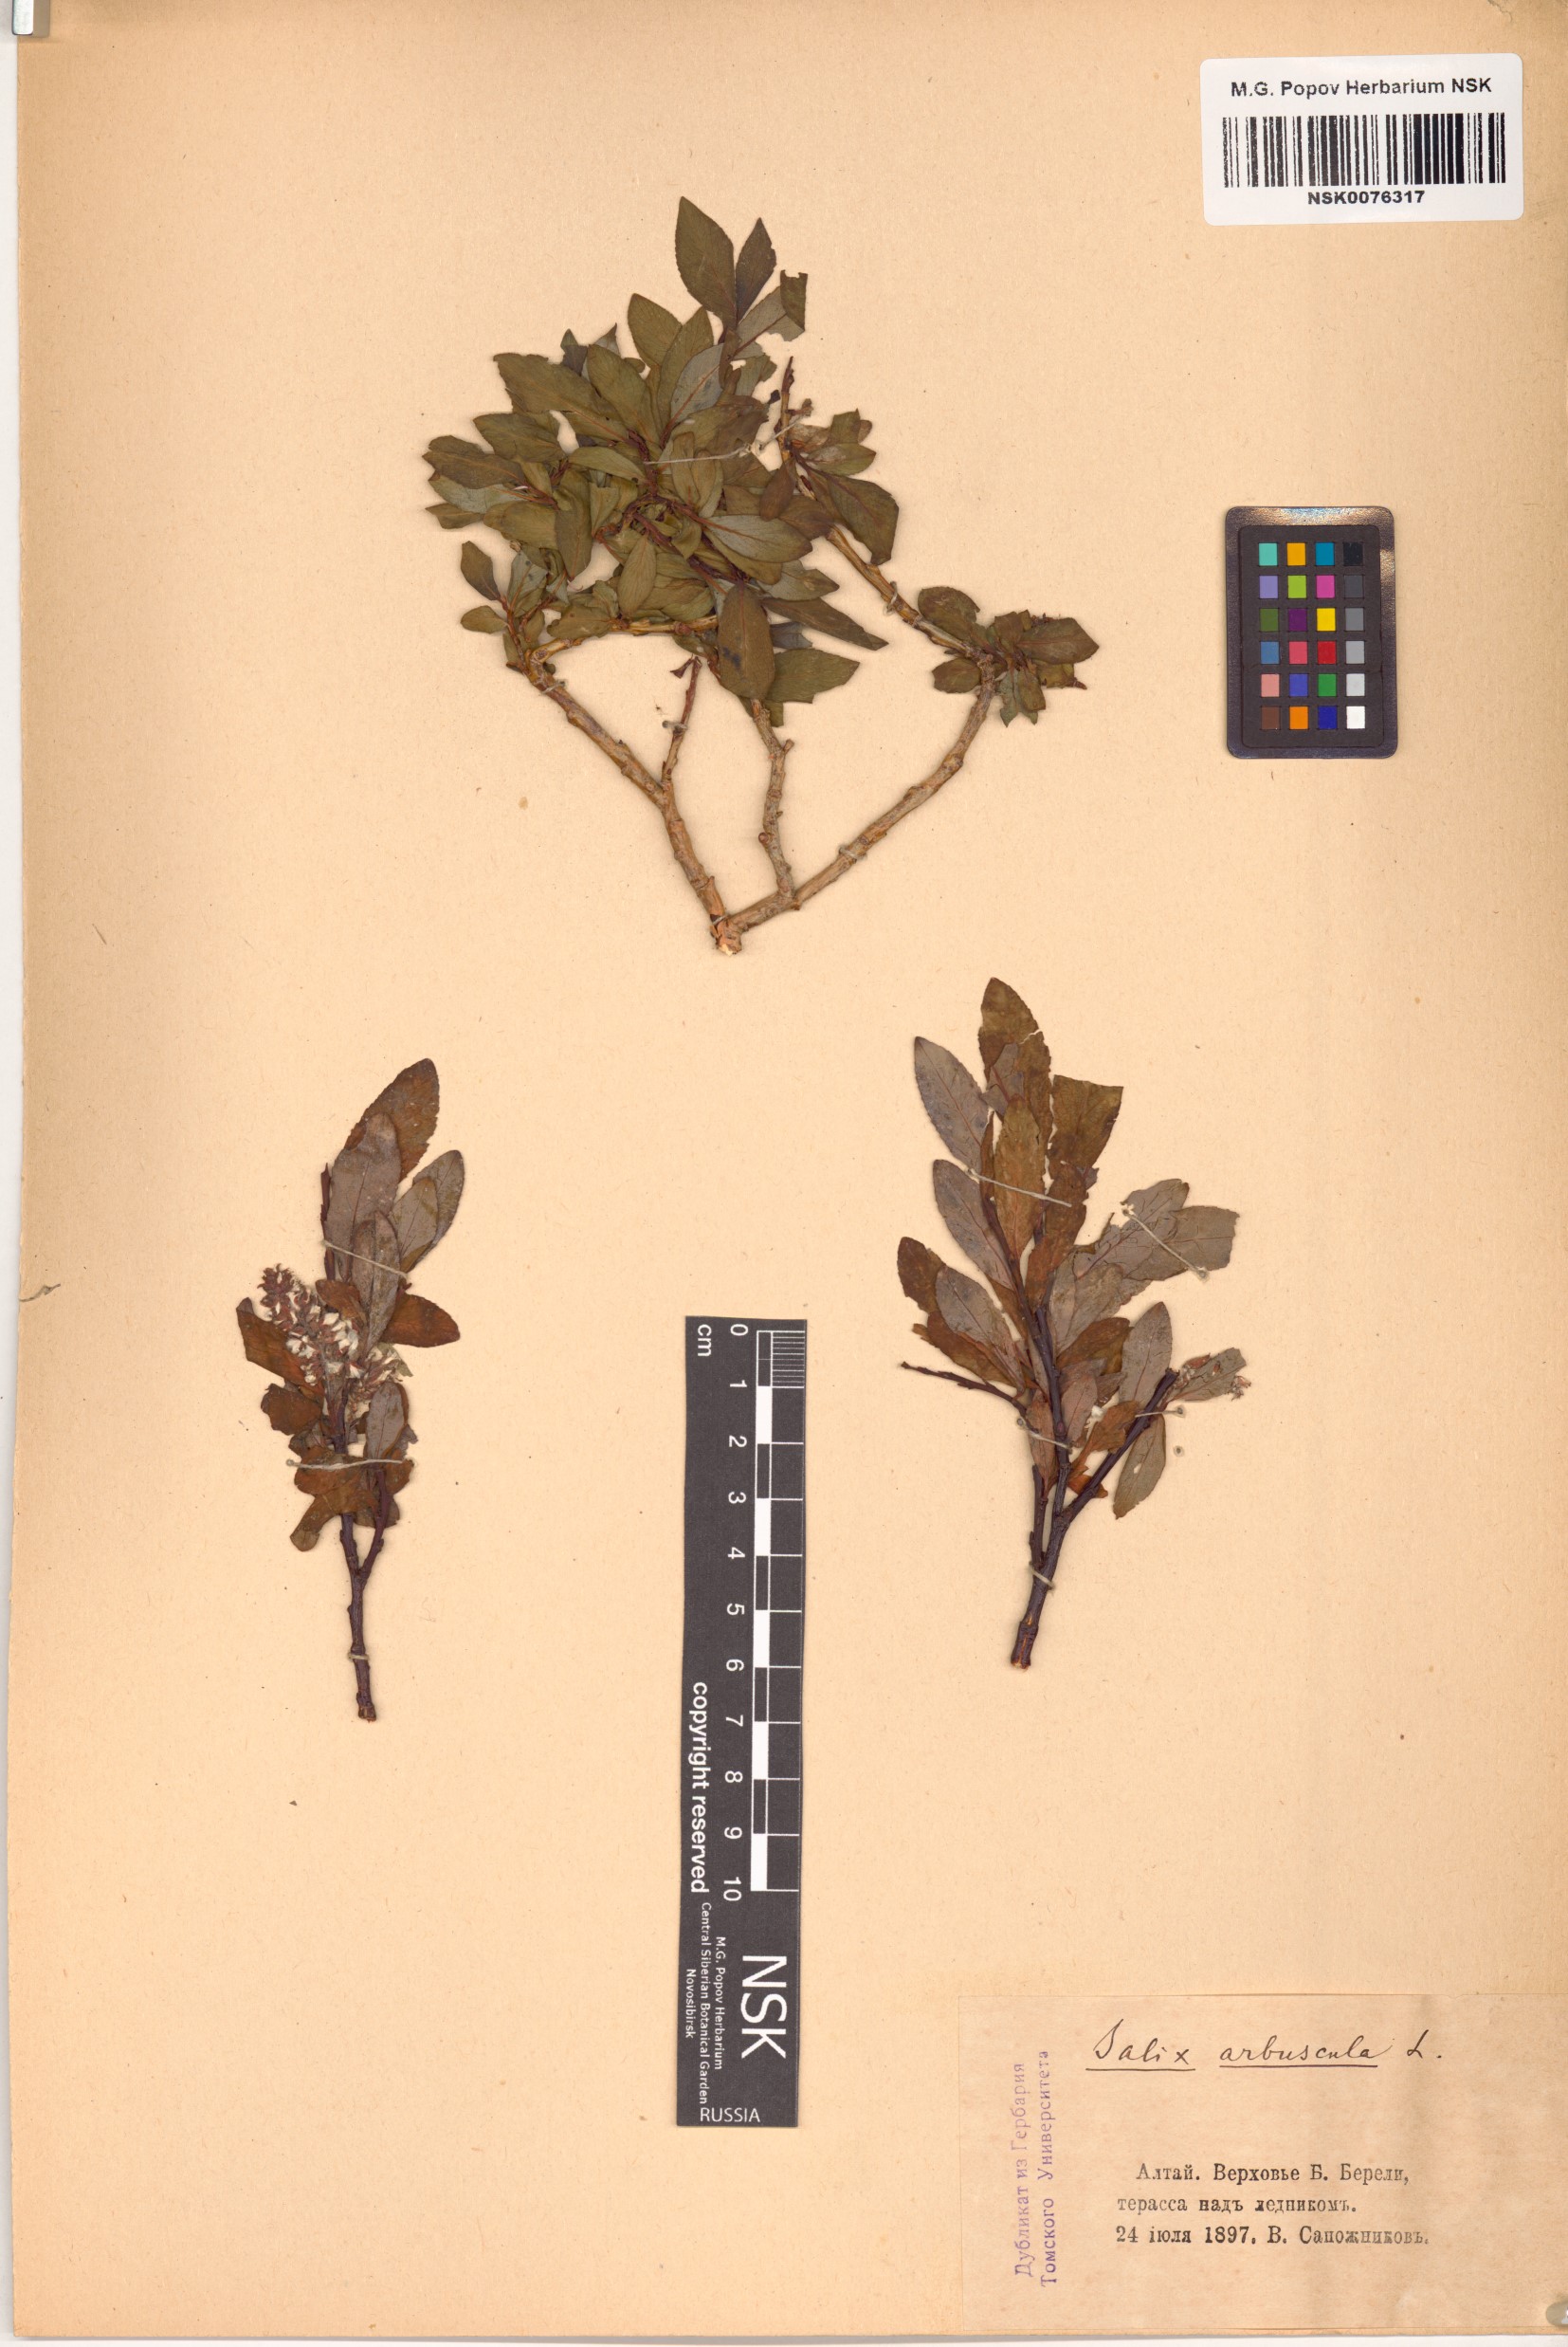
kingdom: Plantae
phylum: Tracheophyta
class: Magnoliopsida
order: Malpighiales
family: Salicaceae
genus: Salix
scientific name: Salix arbuscula
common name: Mountain willow
